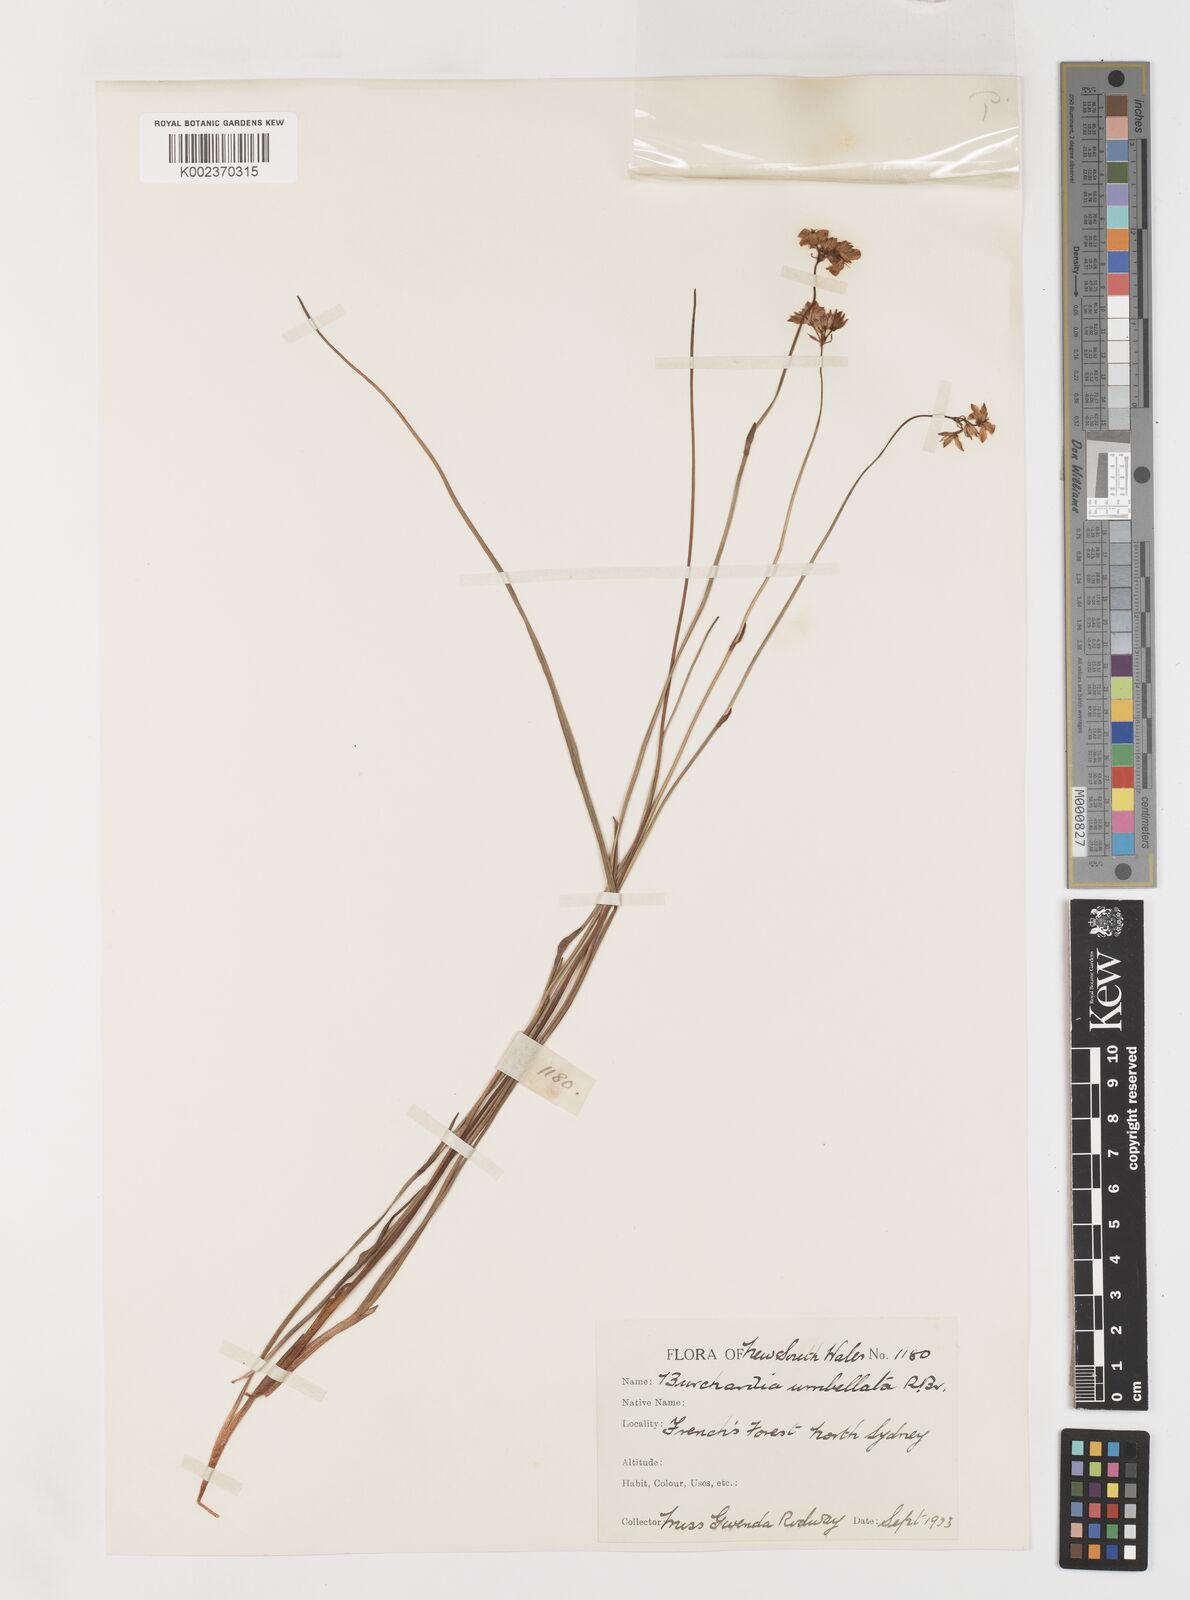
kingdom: Plantae
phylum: Tracheophyta
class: Liliopsida
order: Liliales
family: Colchicaceae
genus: Burchardia
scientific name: Burchardia umbellata
